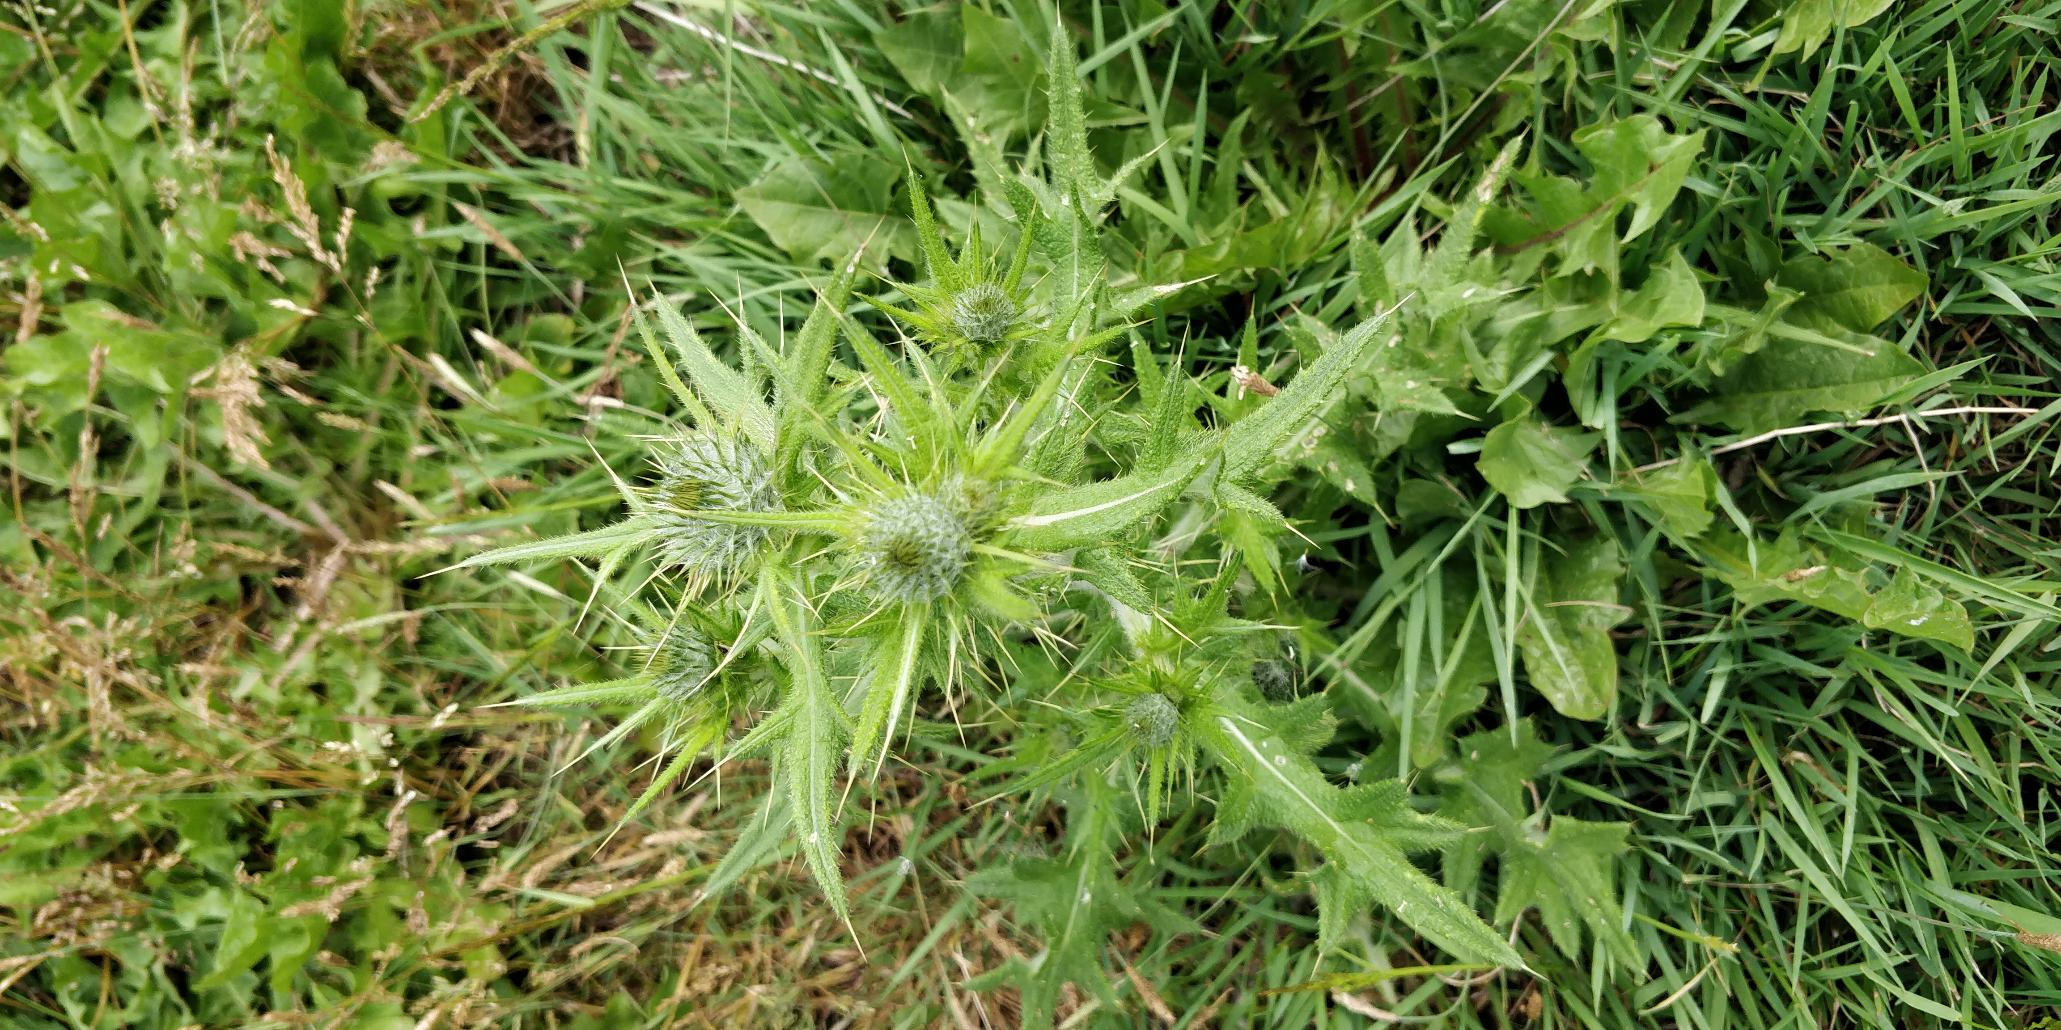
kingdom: Plantae
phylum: Tracheophyta
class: Magnoliopsida
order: Asterales
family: Asteraceae
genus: Cirsium
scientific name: Cirsium vulgare
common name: Horse-tidsel
